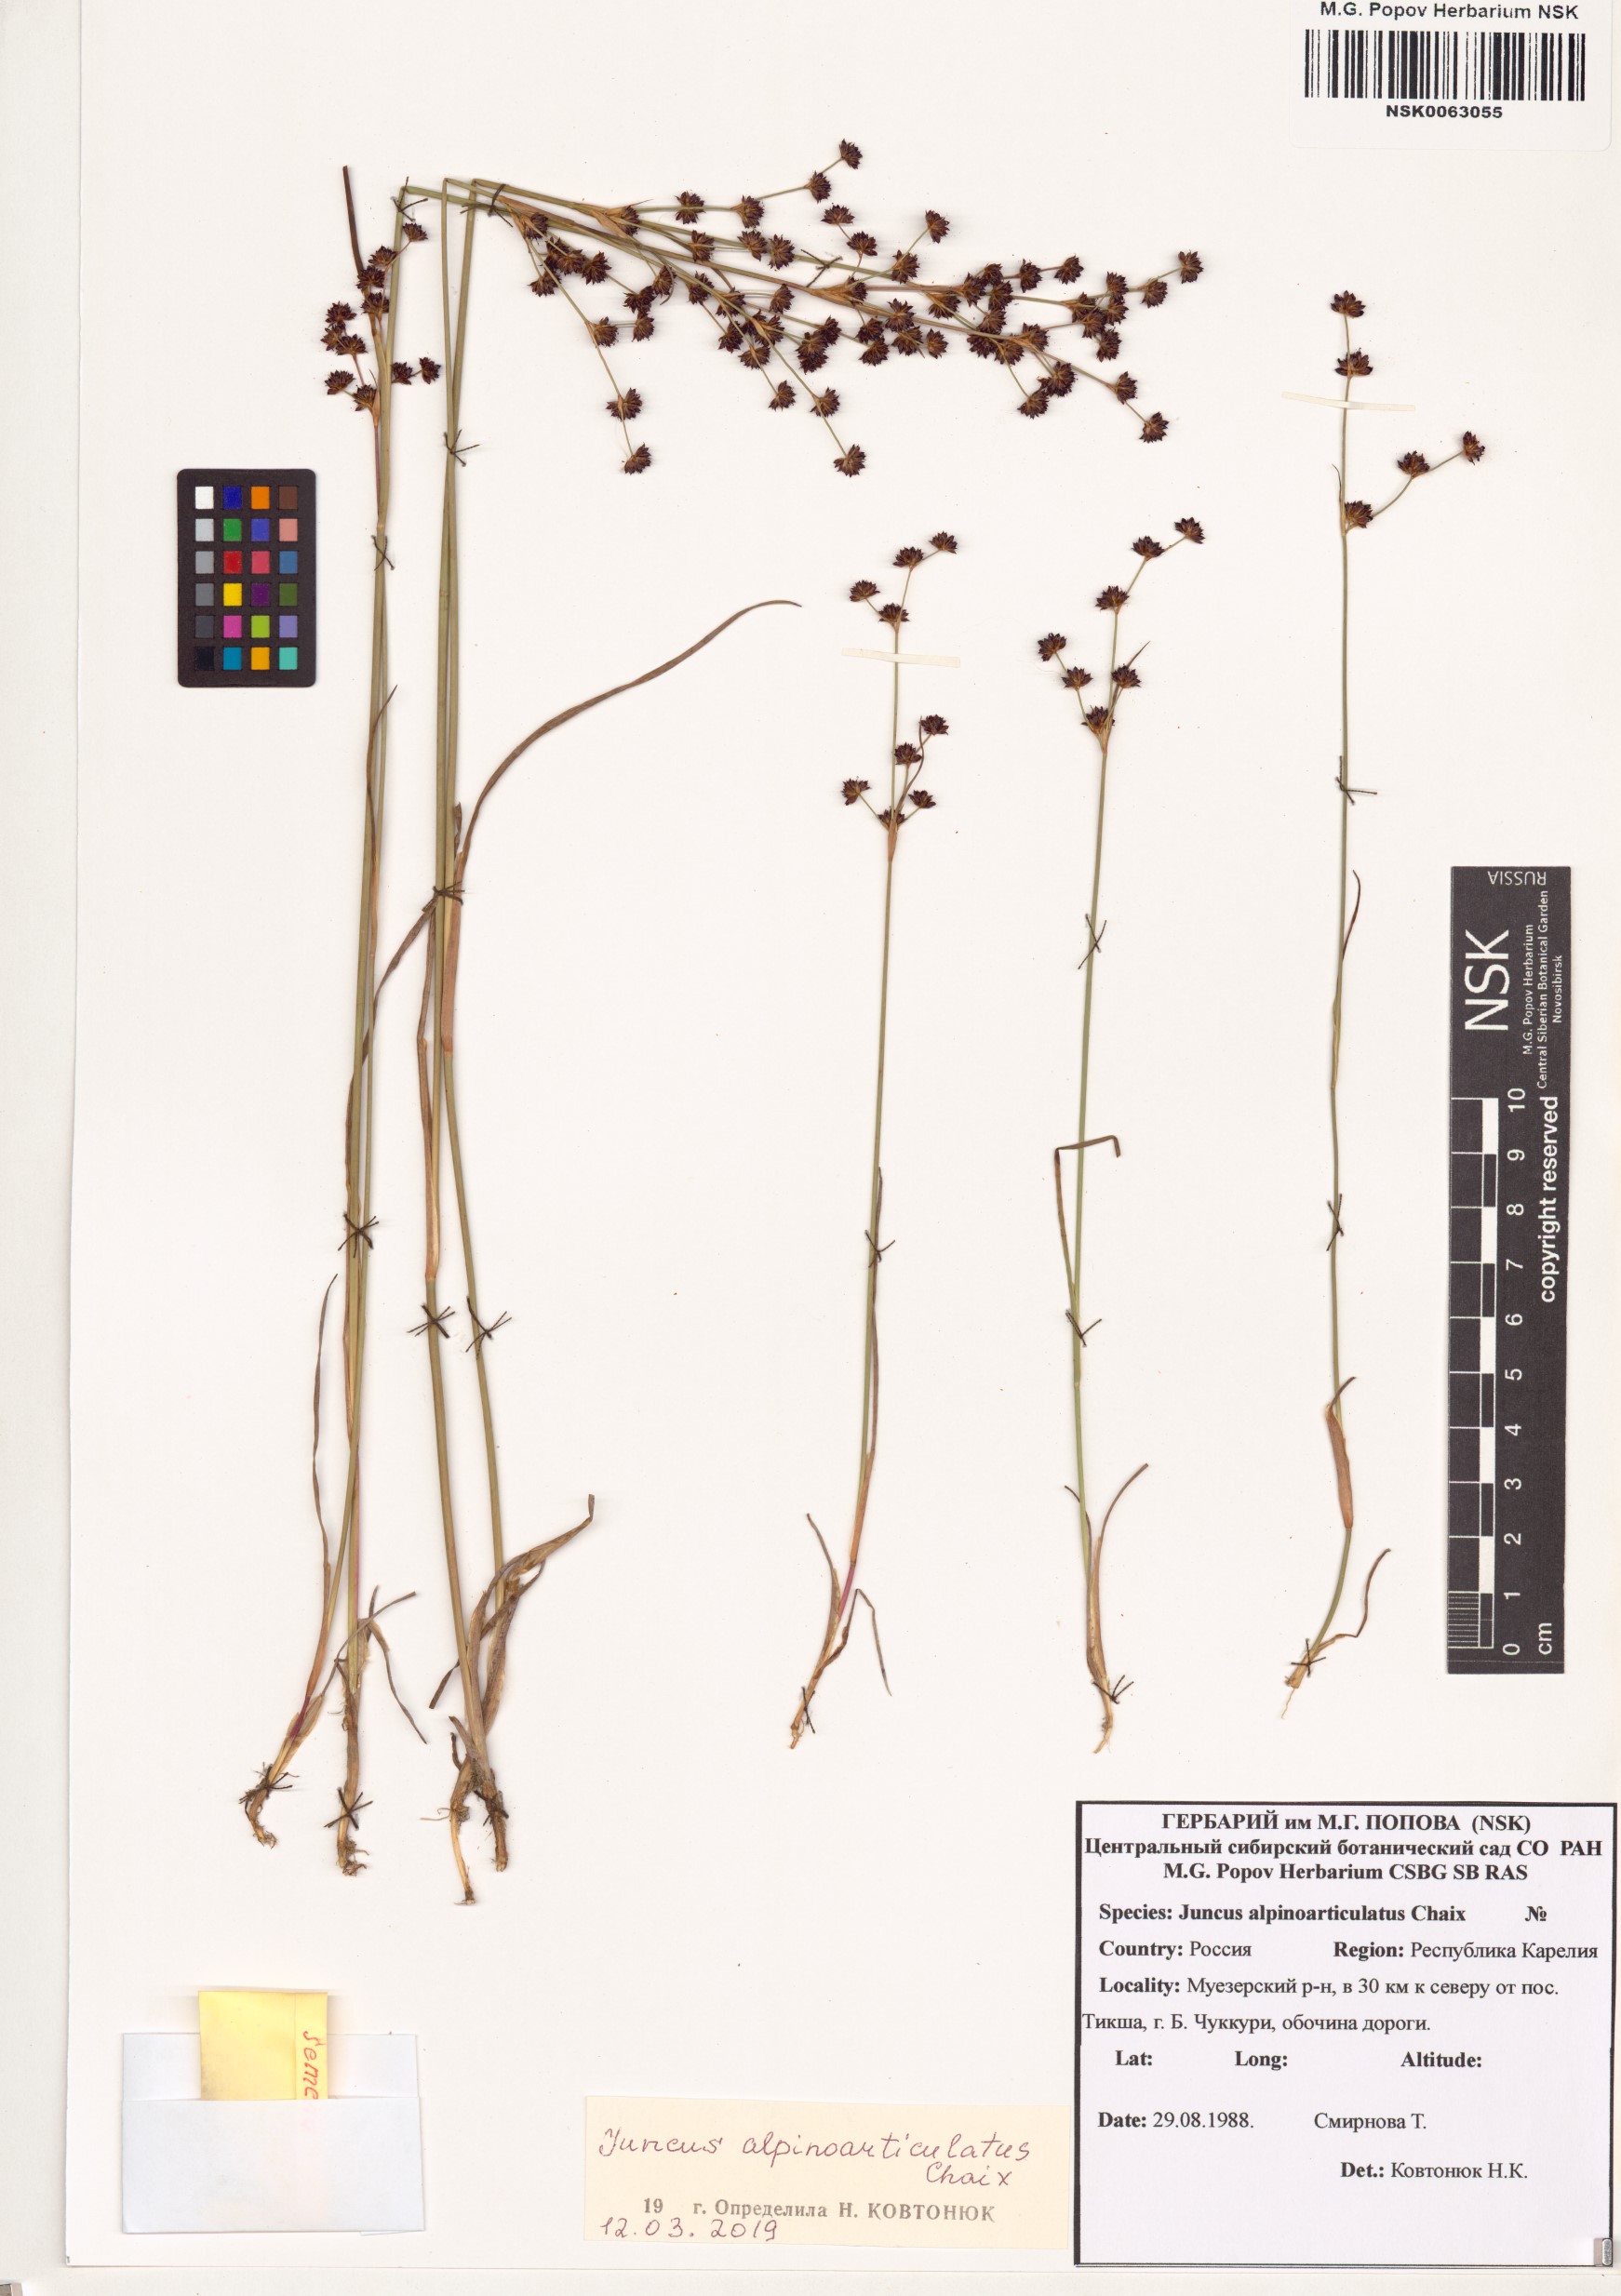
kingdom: Plantae
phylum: Tracheophyta
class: Liliopsida
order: Poales
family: Juncaceae
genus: Juncus
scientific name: Juncus alpinoarticulatus
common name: Alpine rush
